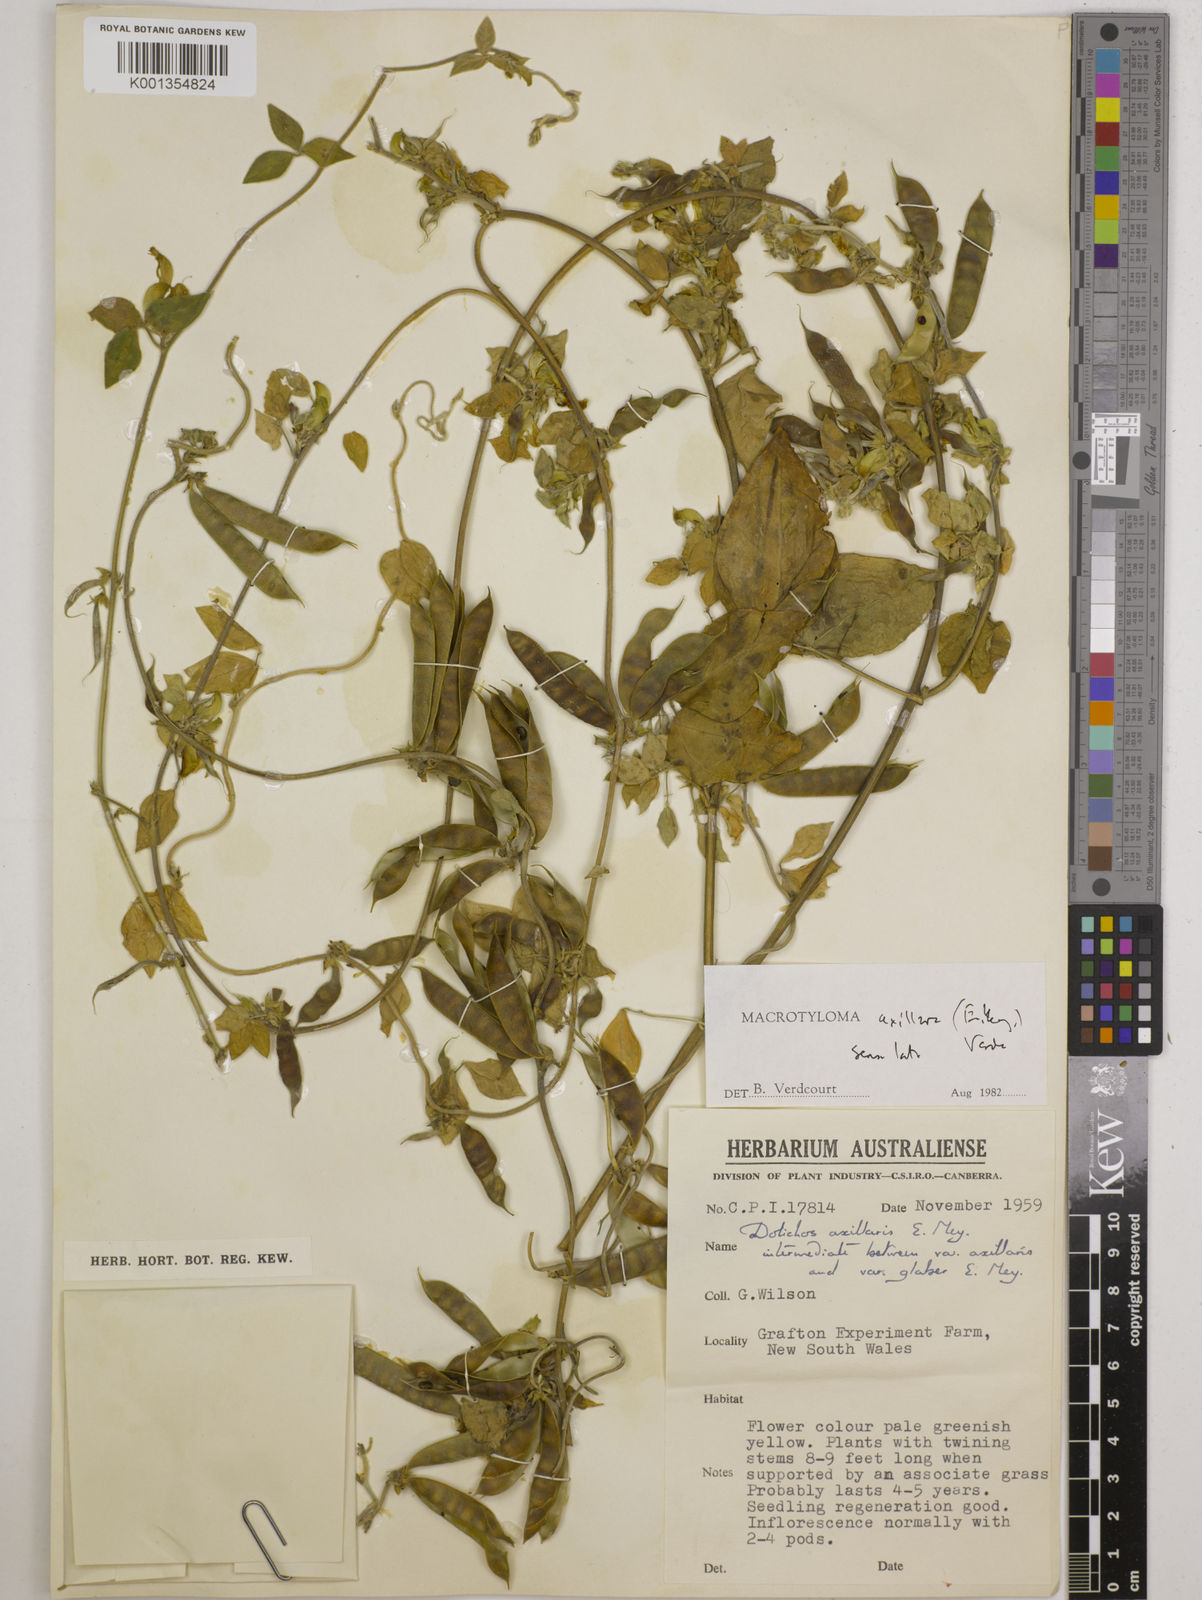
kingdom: Plantae
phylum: Tracheophyta
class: Magnoliopsida
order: Fabales
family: Fabaceae
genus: Macrotyloma
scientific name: Macrotyloma axillare
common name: Perennial horsegram
